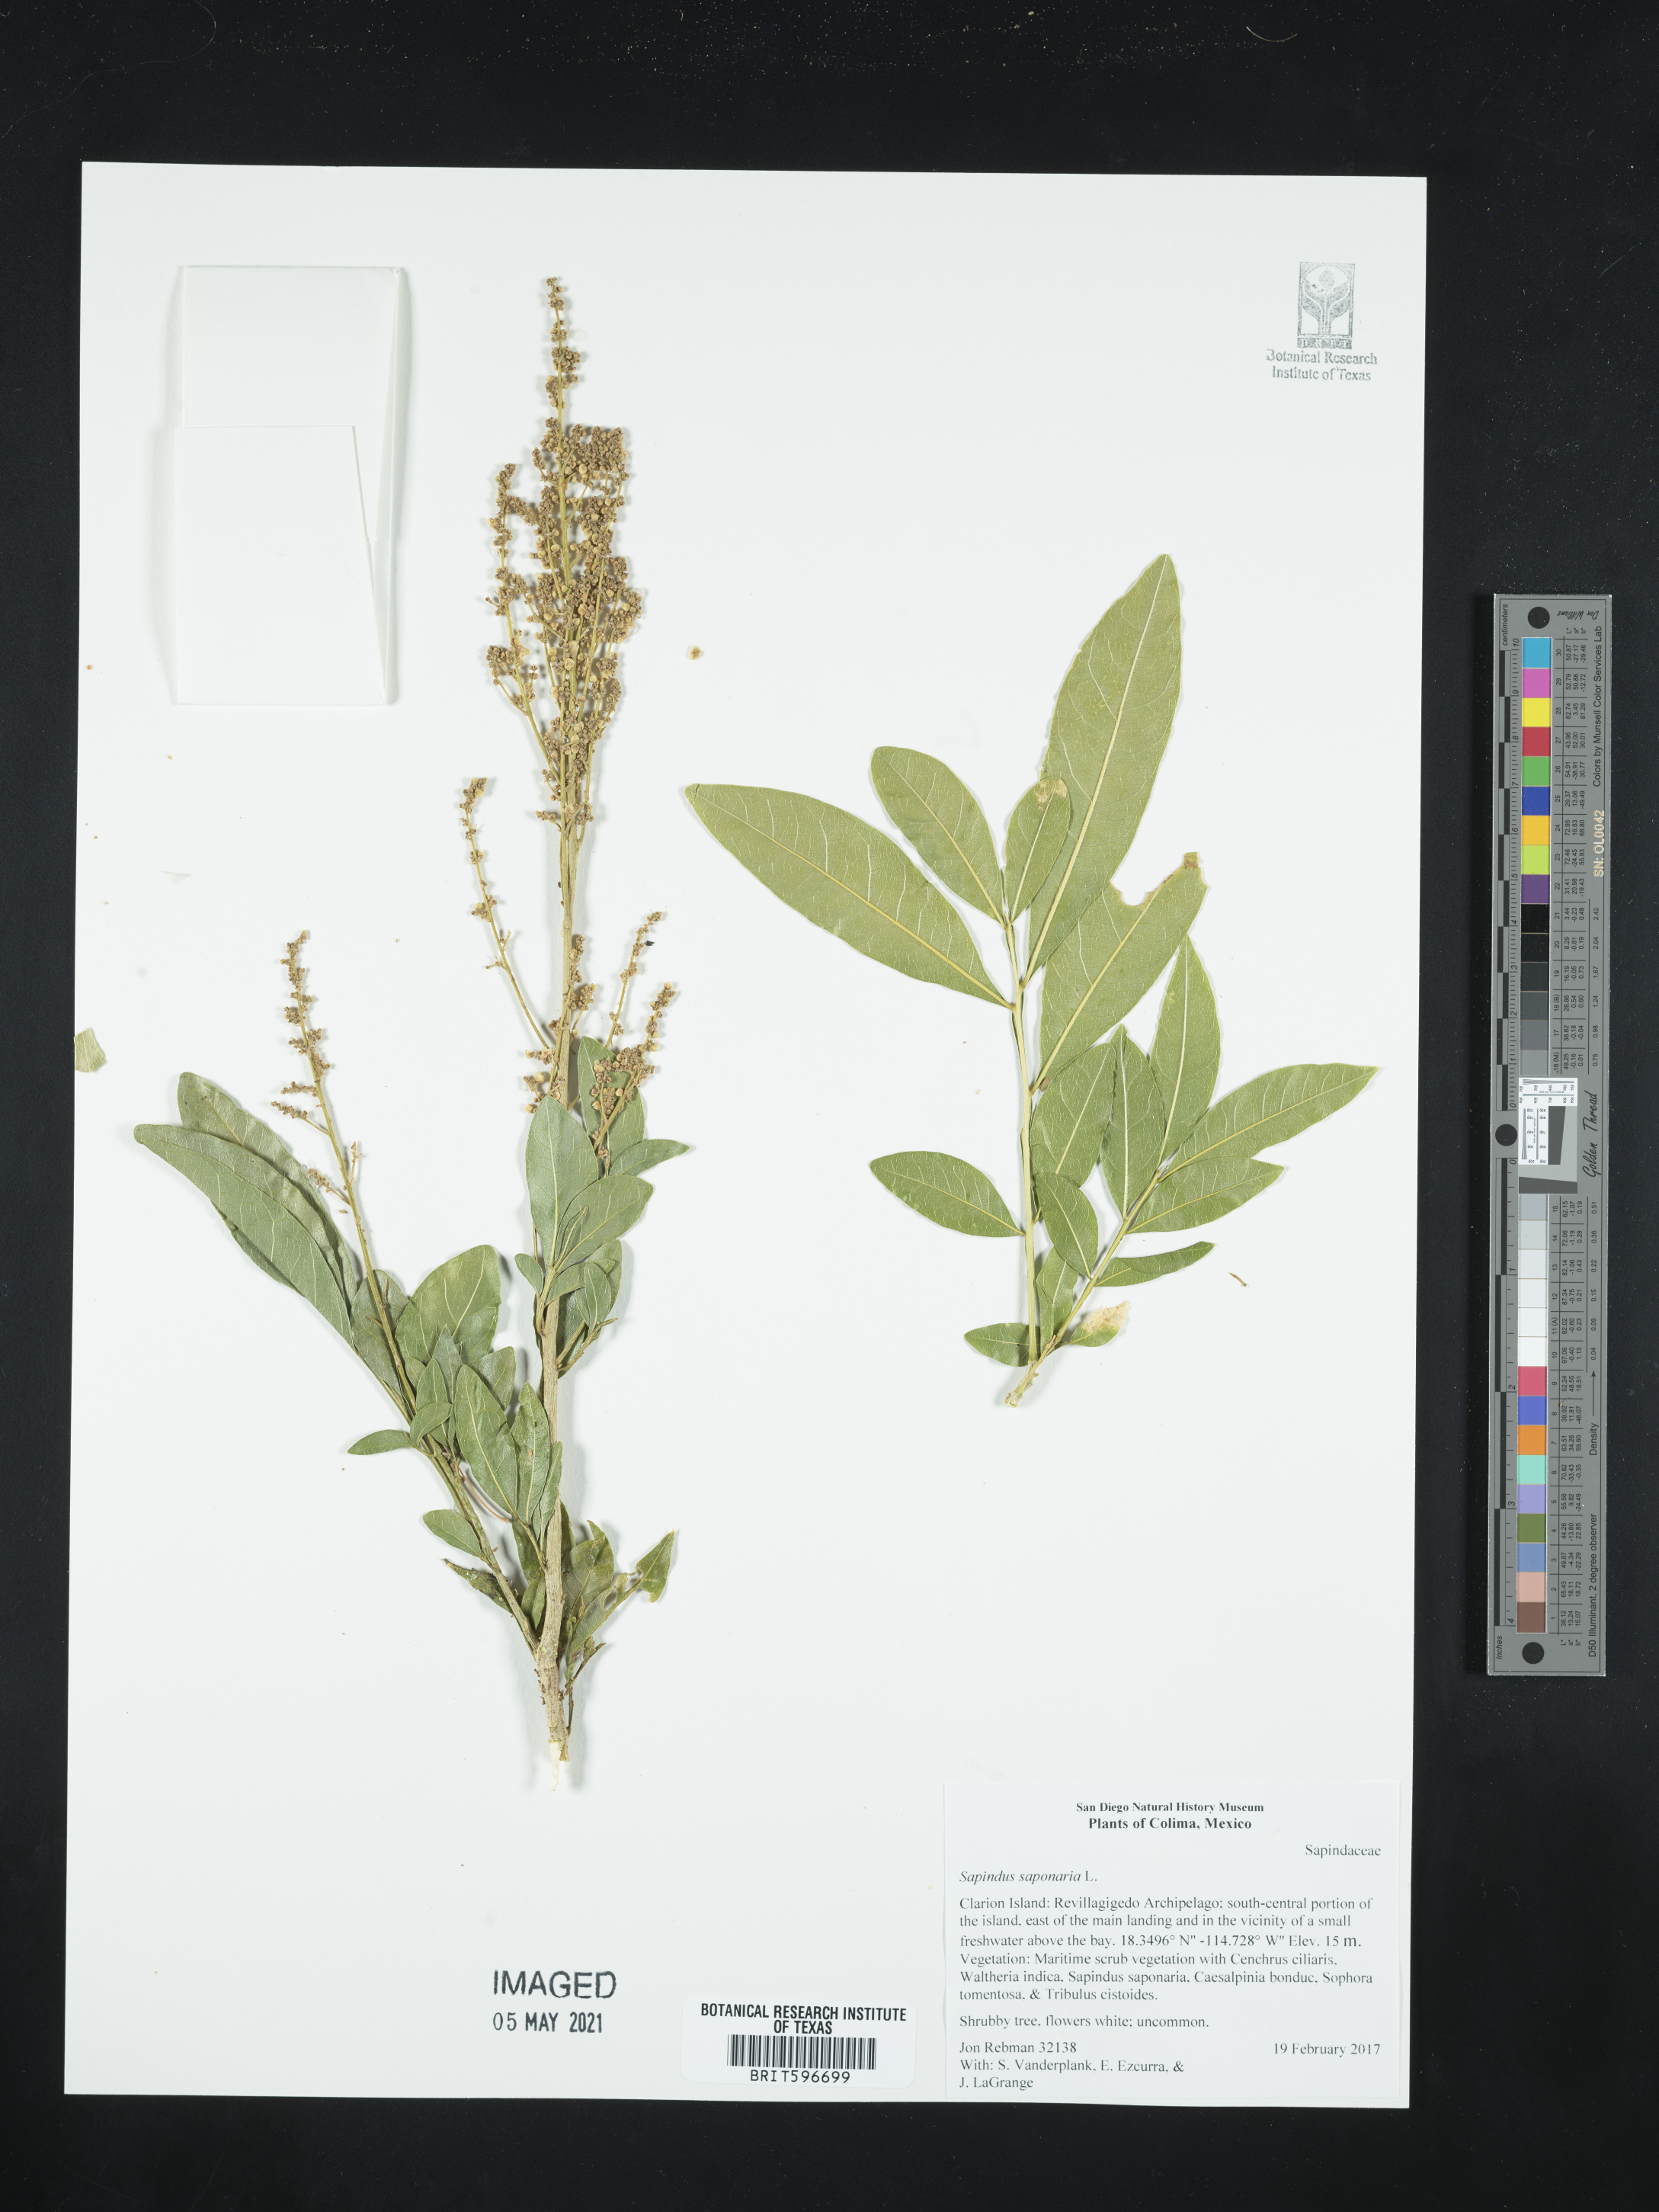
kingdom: Plantae
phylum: Tracheophyta
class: Magnoliopsida
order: Sapindales
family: Sapindaceae
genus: Sapindus
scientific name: Sapindus saponaria
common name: Wingleaf soapberry
